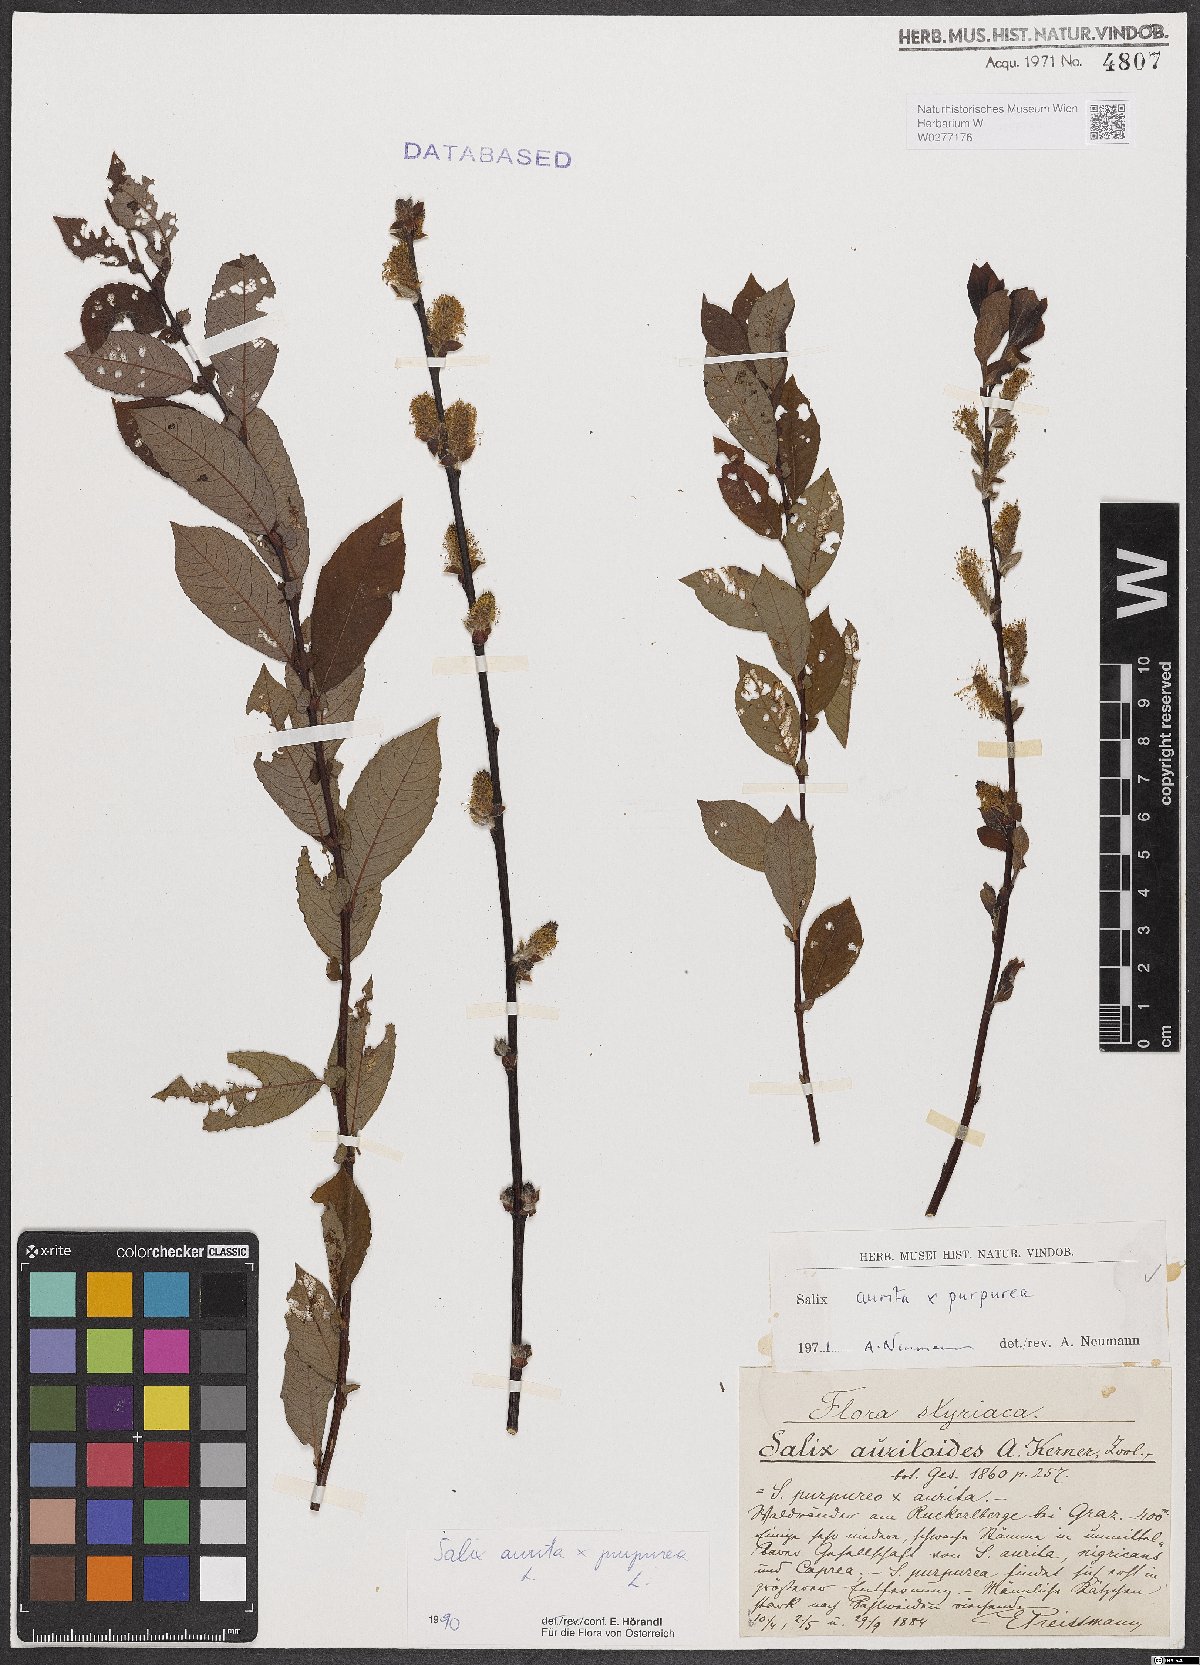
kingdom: Plantae
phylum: Tracheophyta
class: Magnoliopsida
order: Malpighiales
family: Salicaceae
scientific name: Salicaceae
